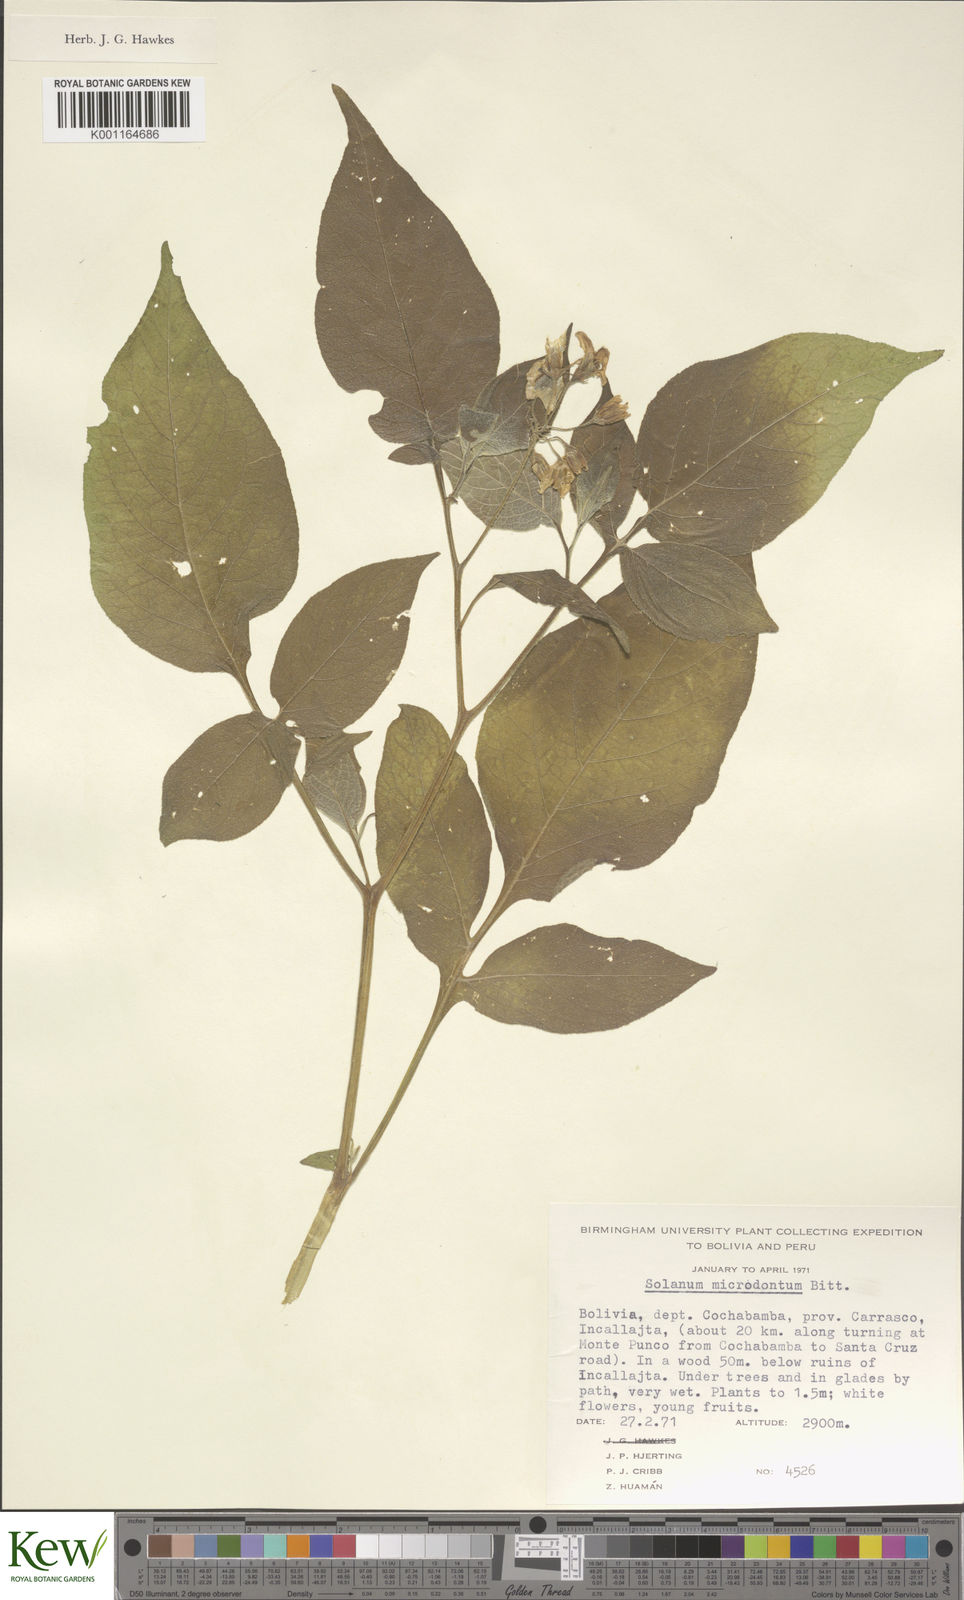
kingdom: Plantae
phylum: Tracheophyta
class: Magnoliopsida
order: Solanales
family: Solanaceae
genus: Solanum
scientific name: Solanum microdontum
